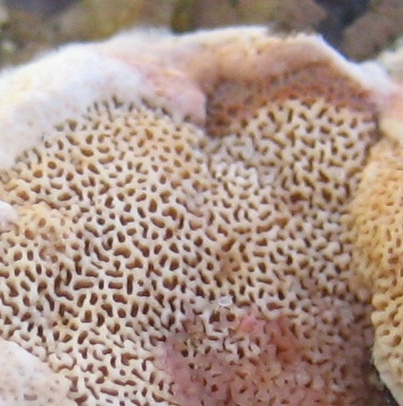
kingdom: Fungi
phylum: Basidiomycota
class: Agaricomycetes
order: Polyporales
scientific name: Polyporales
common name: poresvampordenen
